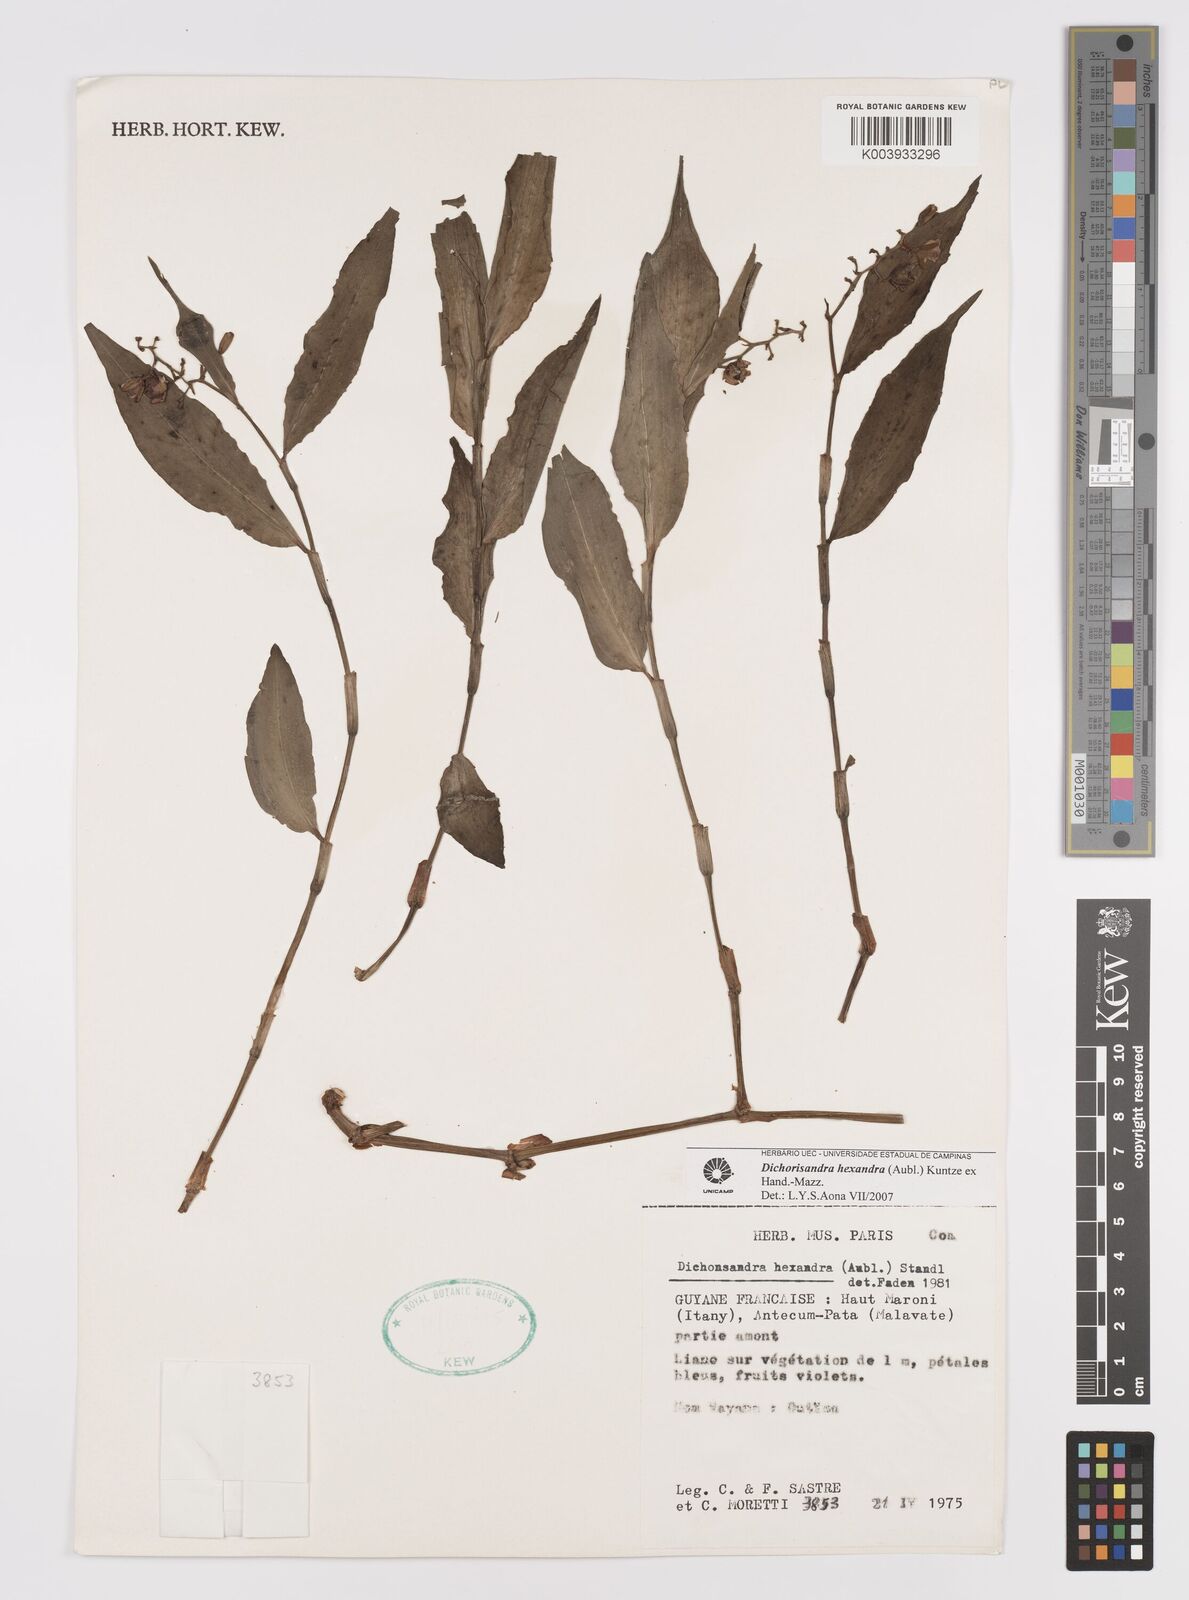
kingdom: Plantae
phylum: Tracheophyta
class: Liliopsida
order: Commelinales
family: Commelinaceae
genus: Dichorisandra
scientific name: Dichorisandra hexandra
